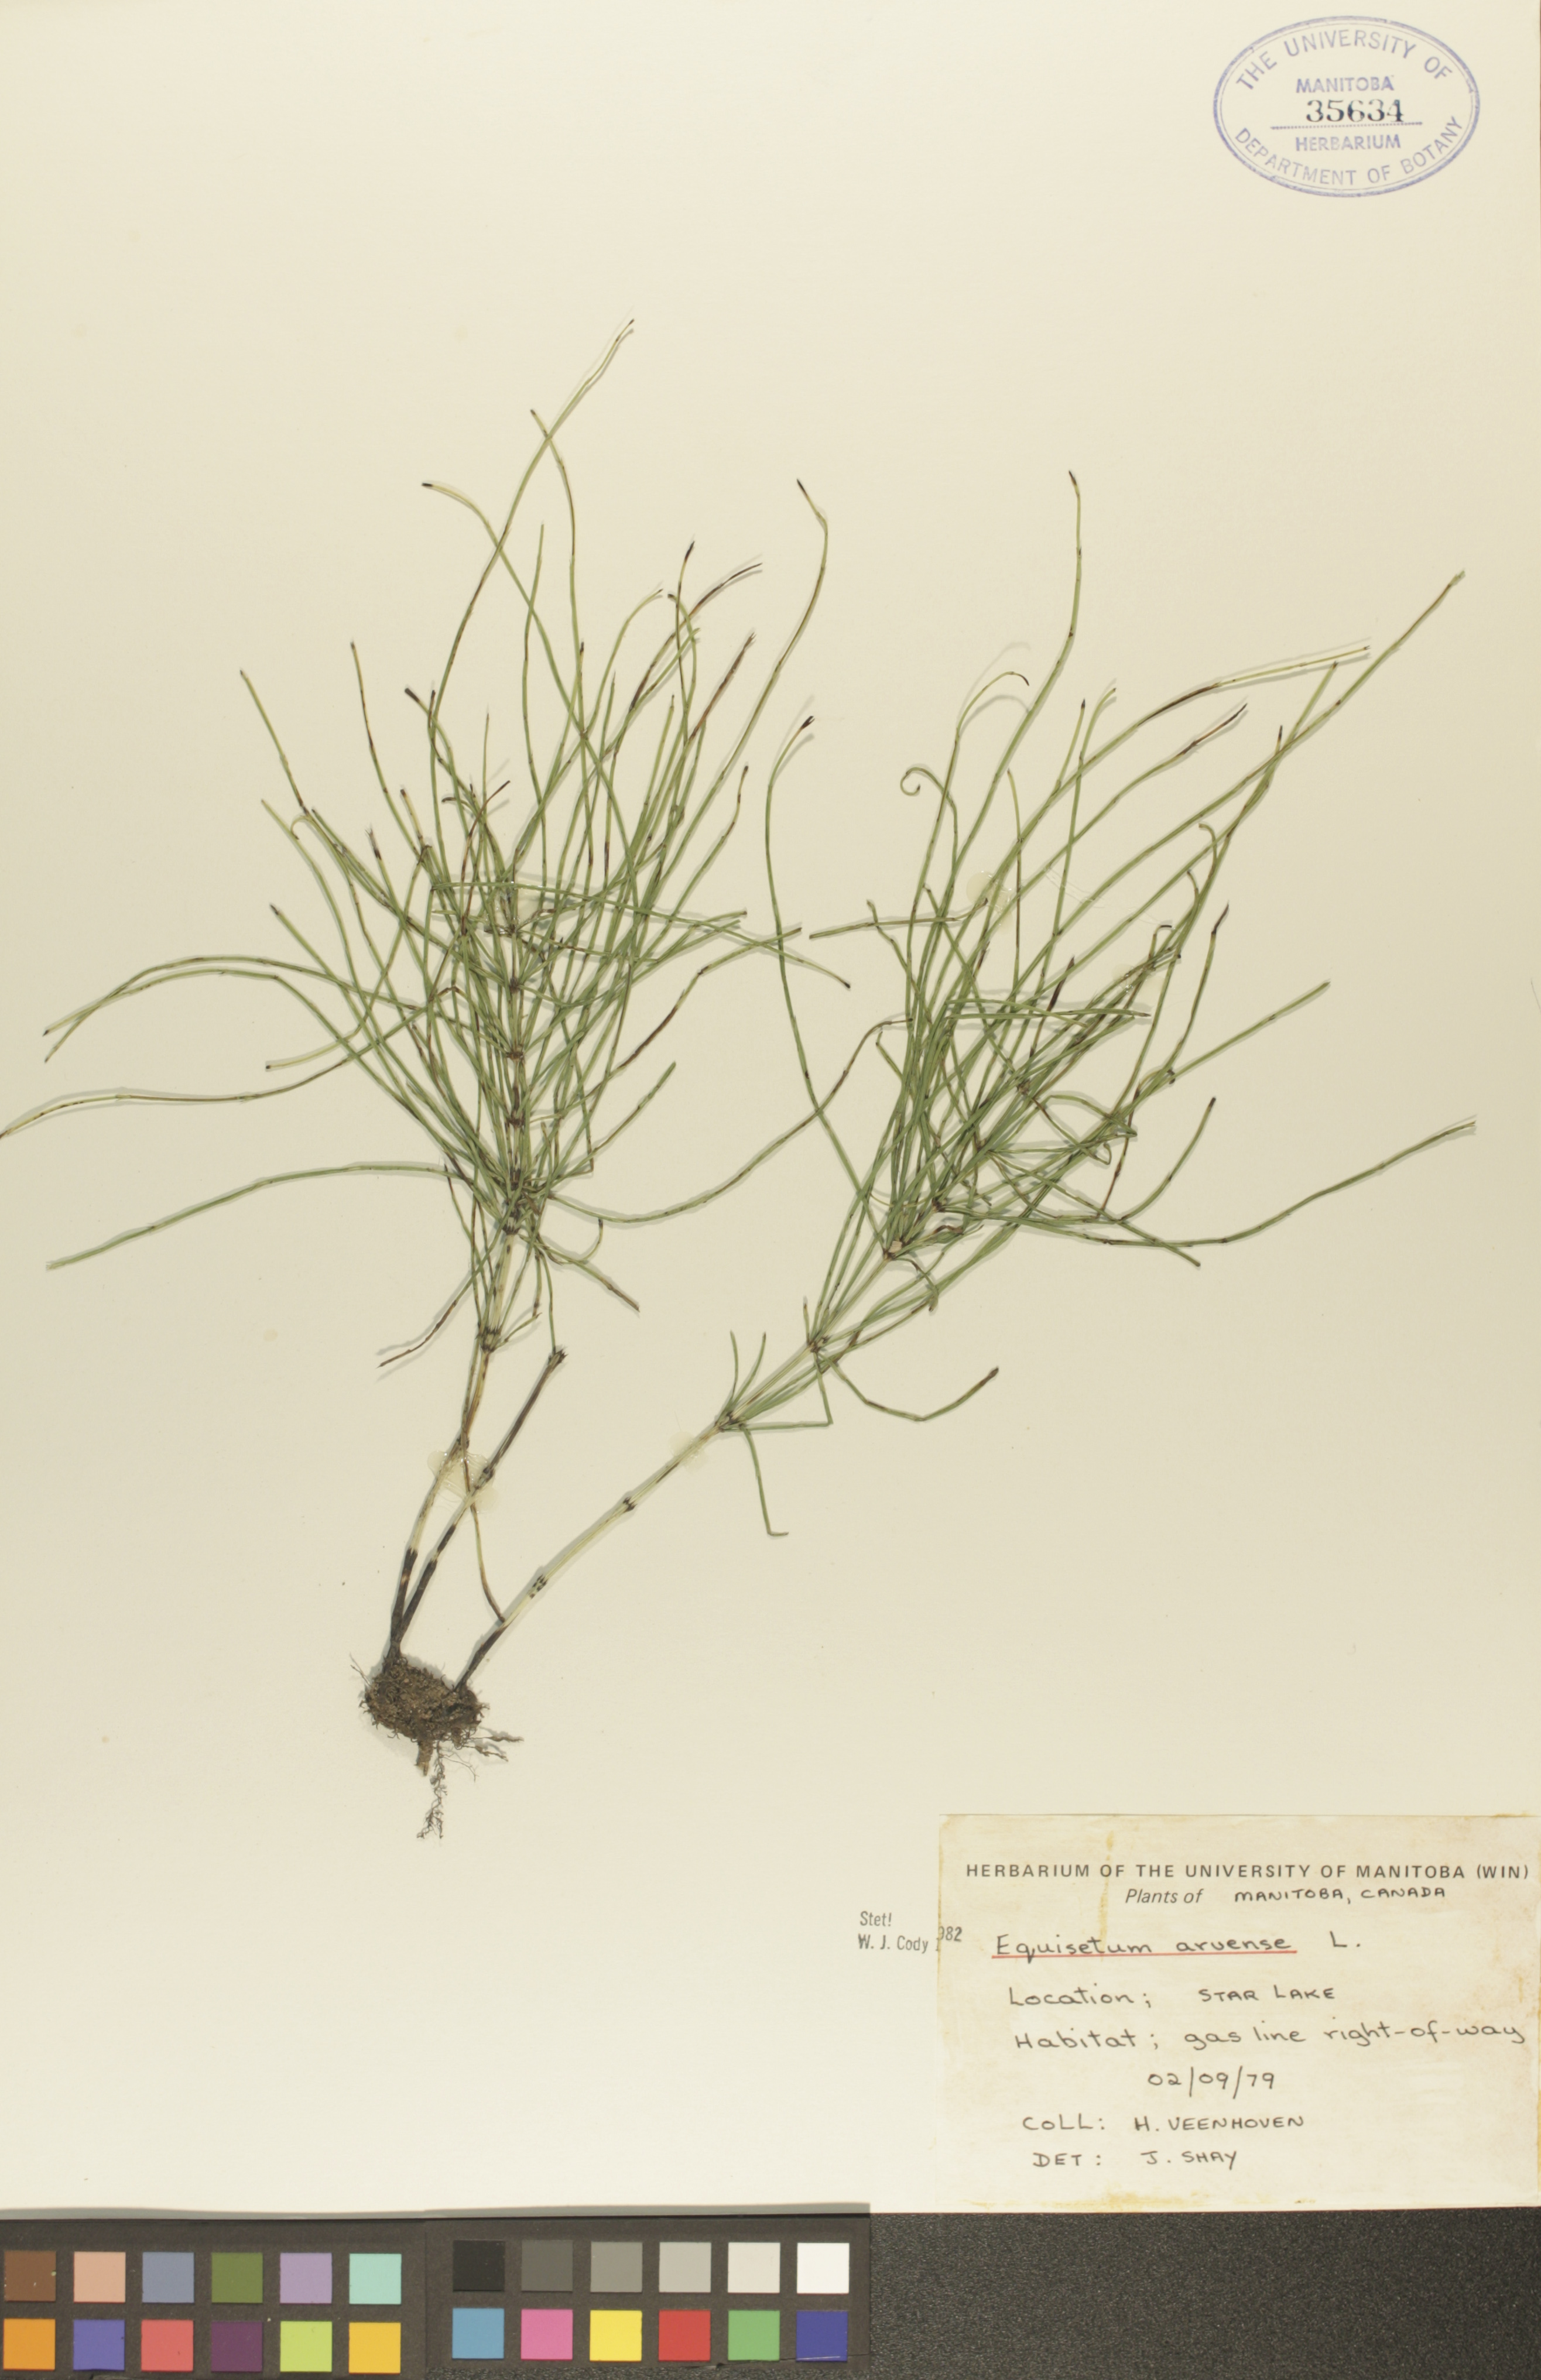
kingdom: Plantae
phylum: Tracheophyta
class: Polypodiopsida
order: Equisetales
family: Equisetaceae
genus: Equisetum
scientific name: Equisetum arvense
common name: Field horsetail
